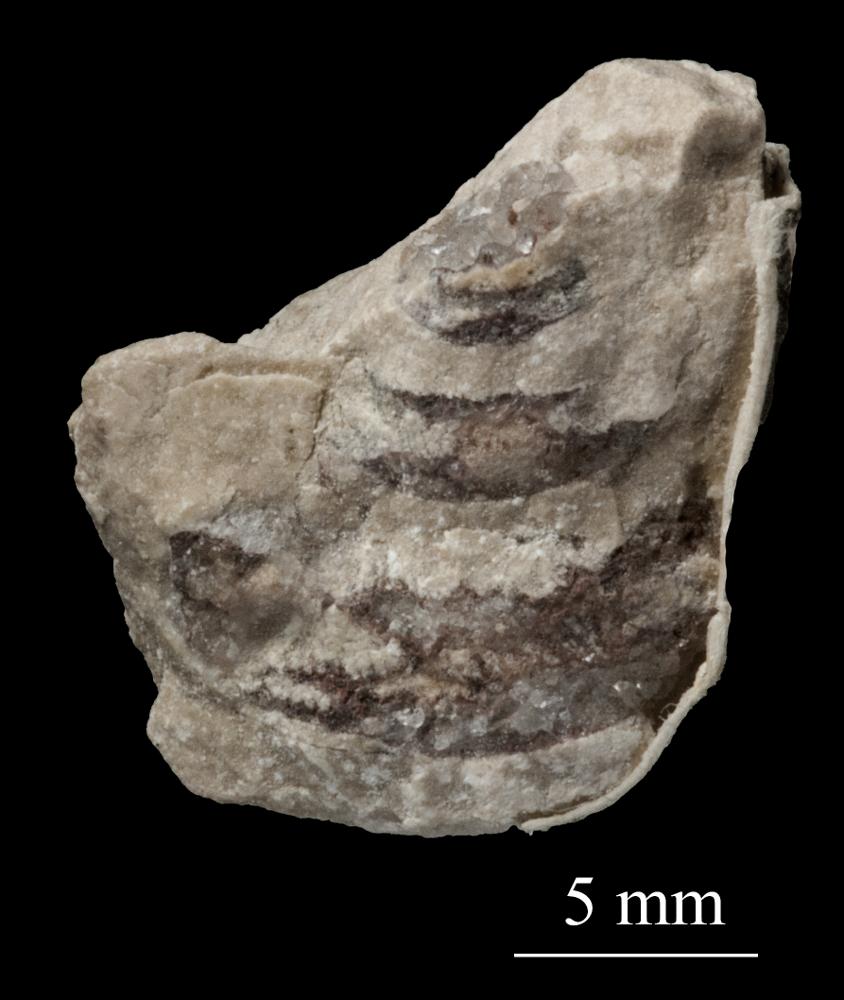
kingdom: Animalia
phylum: Mollusca
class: Gastropoda
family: Platyceratidae
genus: Cyclonema
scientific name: Cyclonema Turbo rupestre
